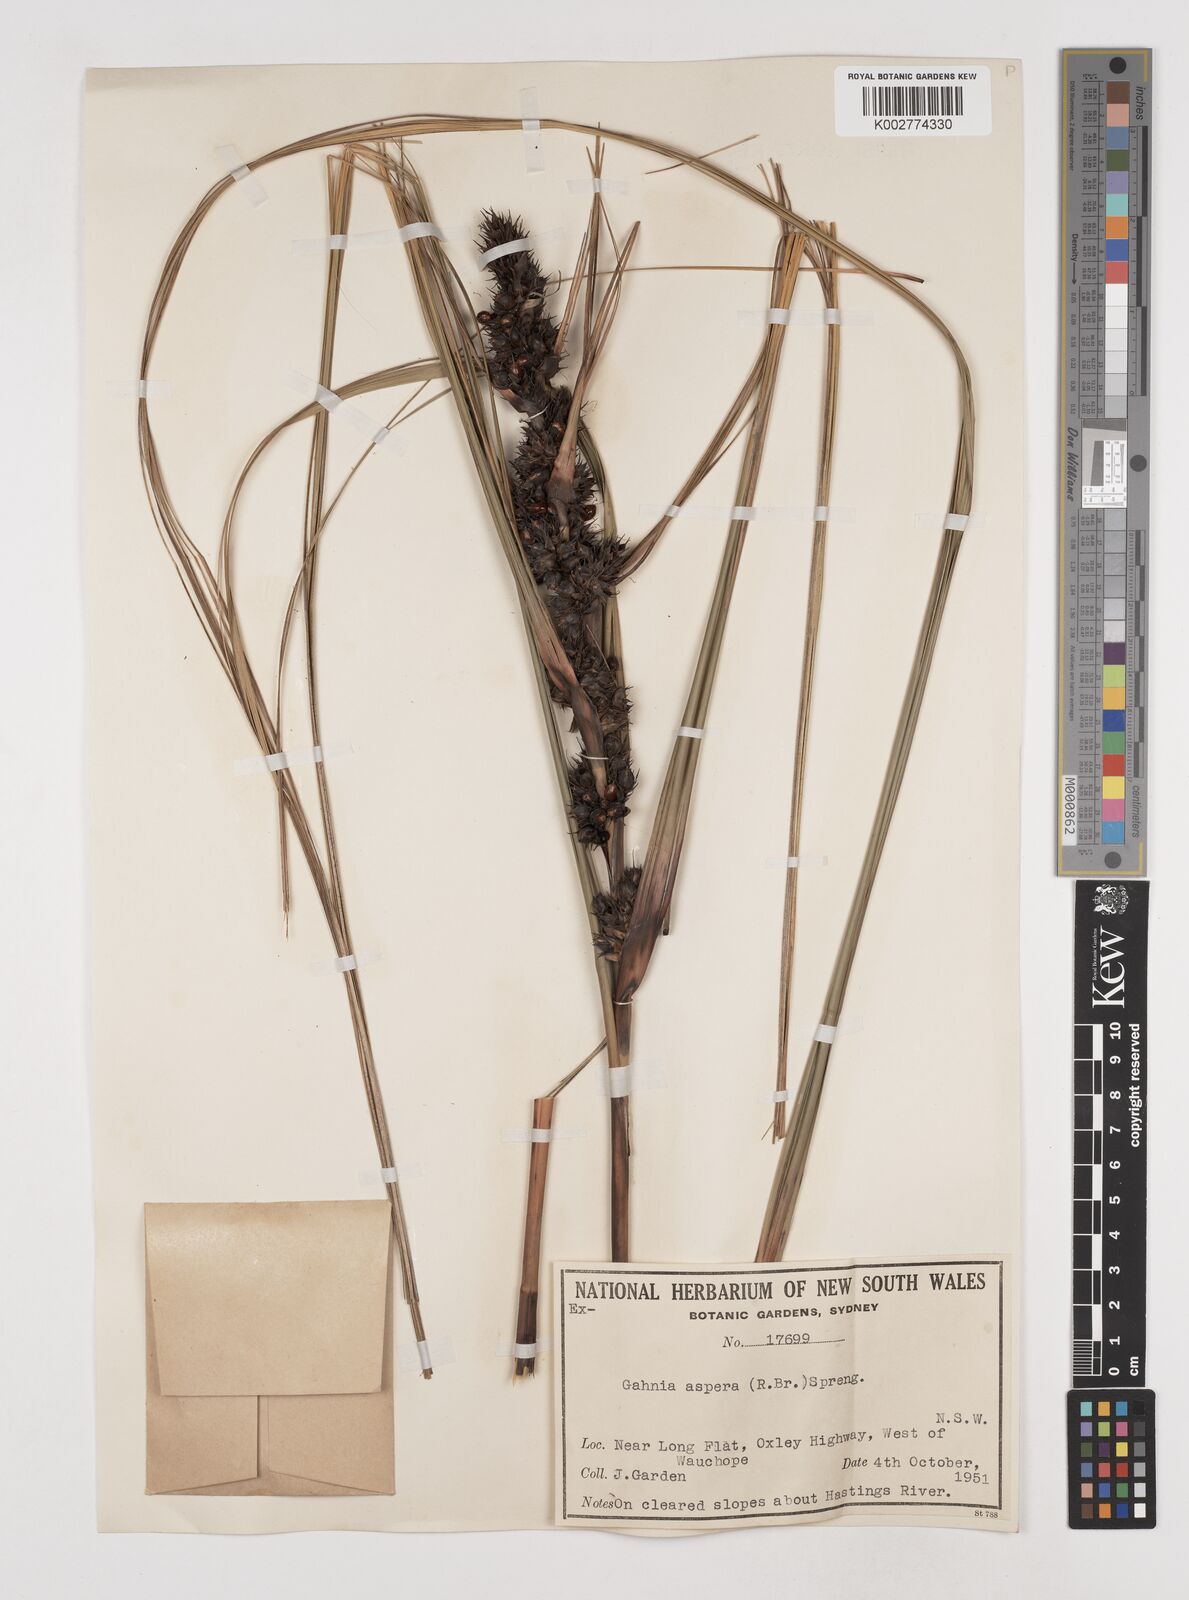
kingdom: Plantae
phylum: Tracheophyta
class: Liliopsida
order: Poales
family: Cyperaceae
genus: Gahnia
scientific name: Gahnia aspera
